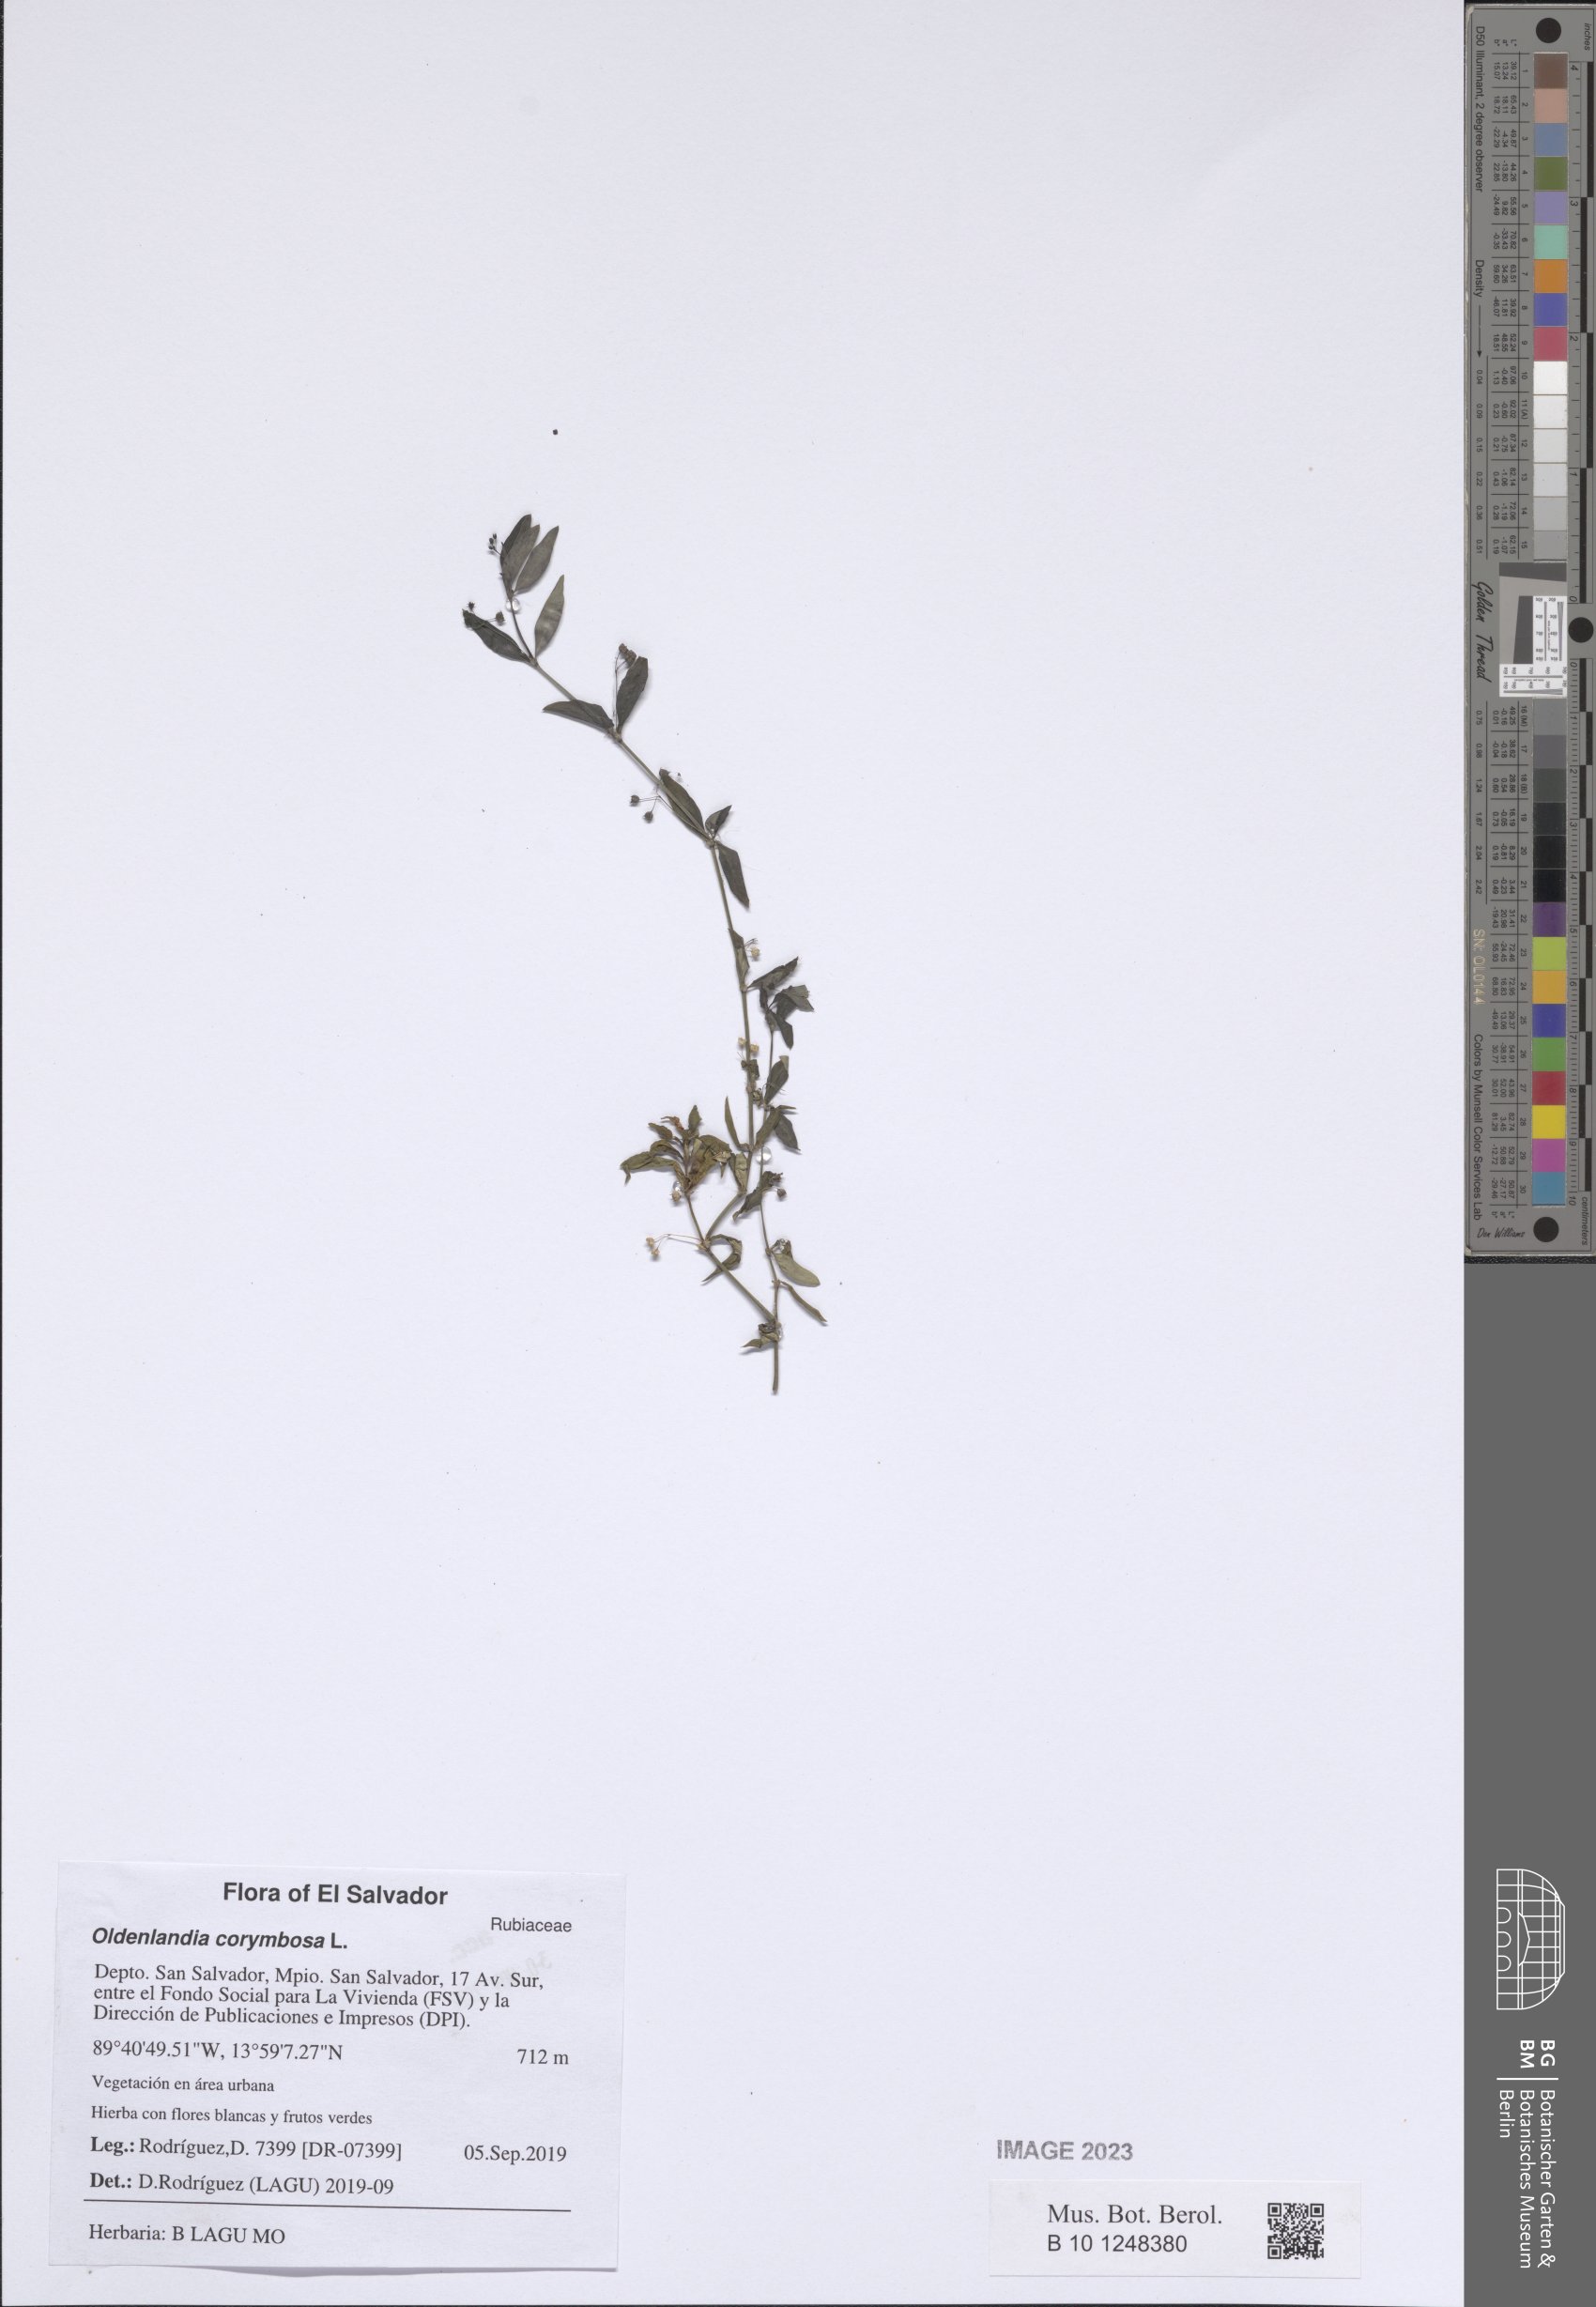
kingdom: Plantae
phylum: Tracheophyta
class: Magnoliopsida
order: Gentianales
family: Rubiaceae
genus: Oldenlandia
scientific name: Oldenlandia corymbosa
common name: Flat-top mille graines
